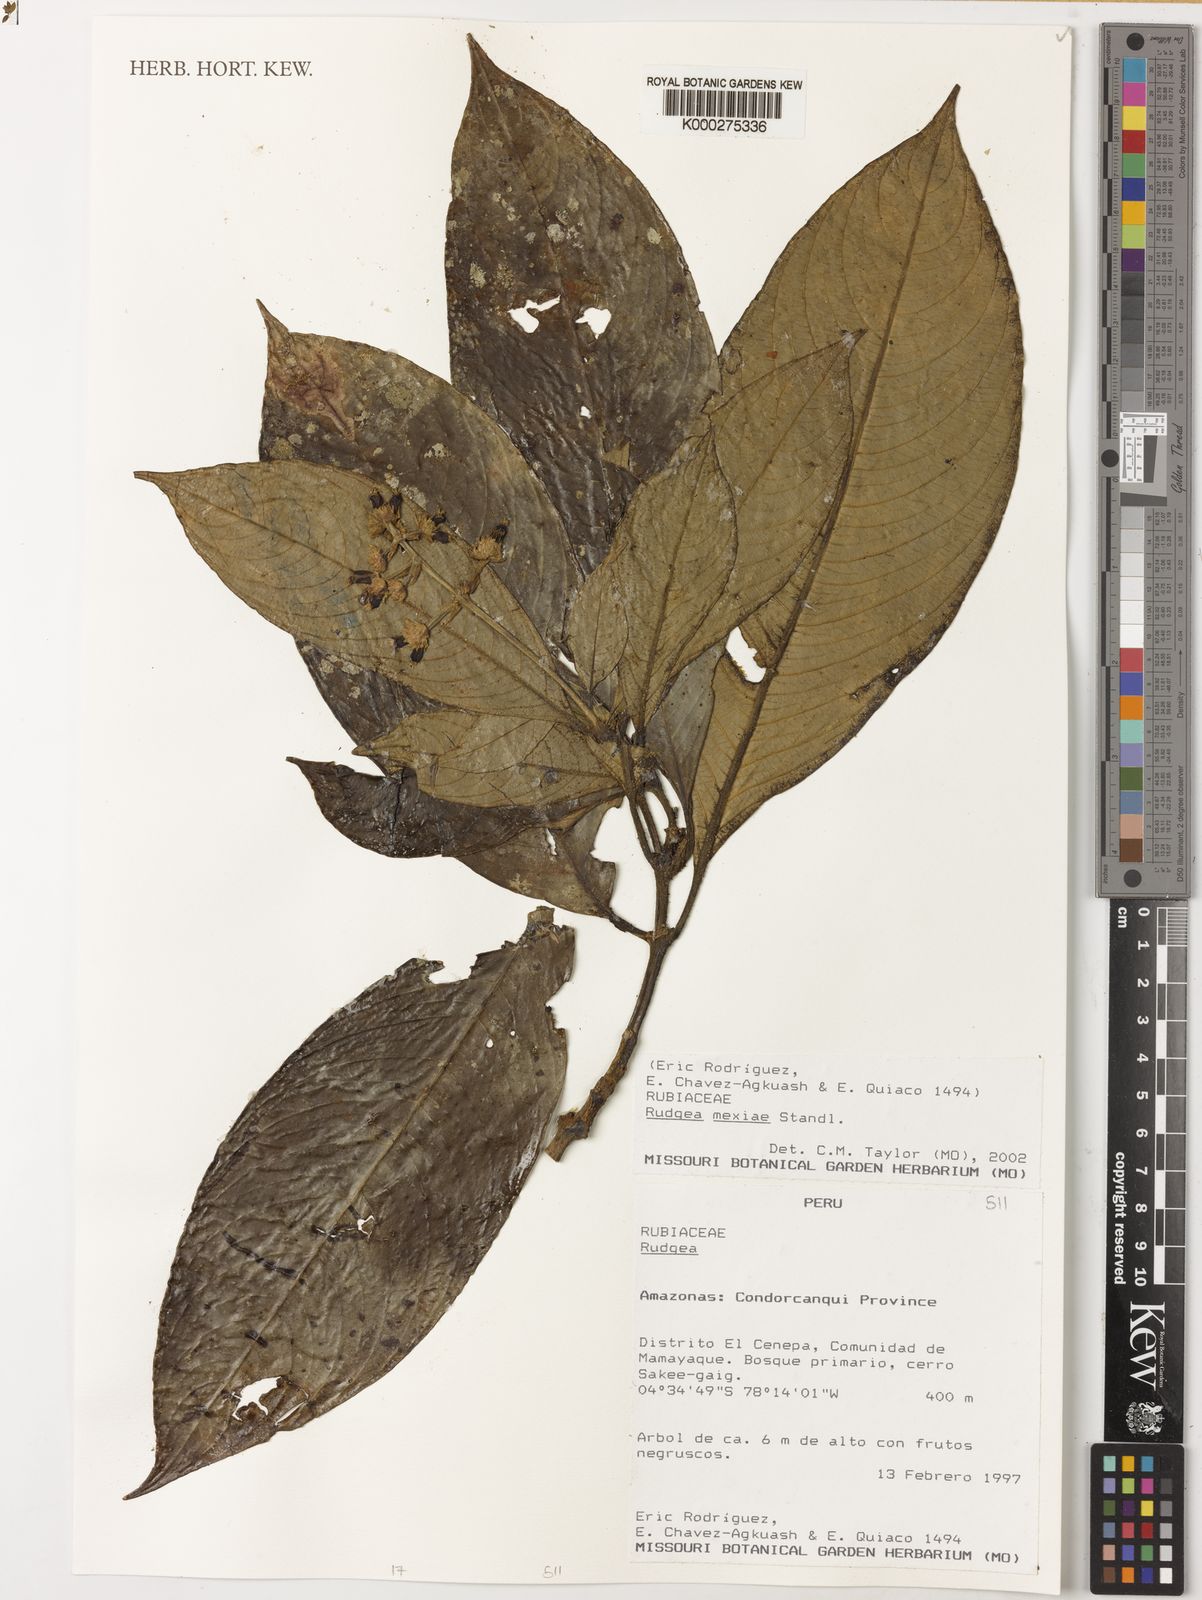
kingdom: Plantae
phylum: Tracheophyta
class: Magnoliopsida
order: Gentianales
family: Rubiaceae
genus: Palicourea
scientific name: Palicourea yneziae
